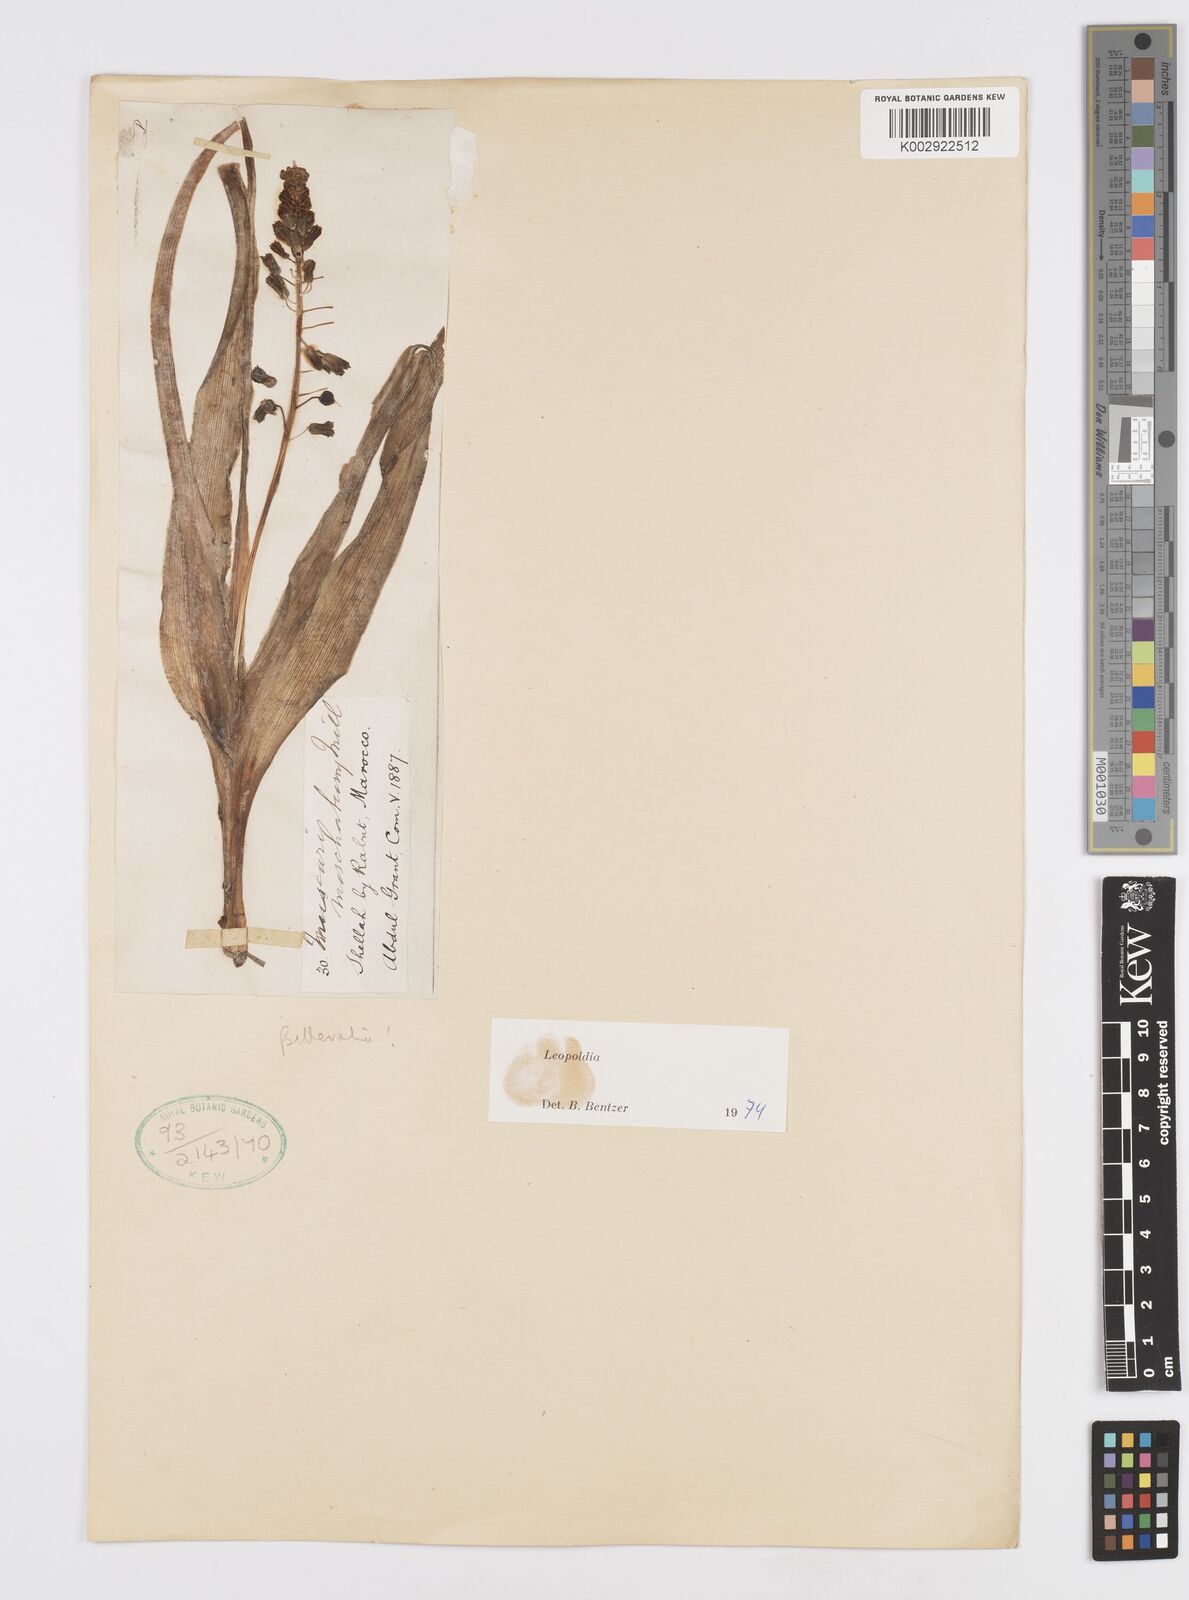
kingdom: Animalia
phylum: Mollusca
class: Cephalopoda
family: Neocomitidae
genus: Leopoldia
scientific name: Leopoldia
